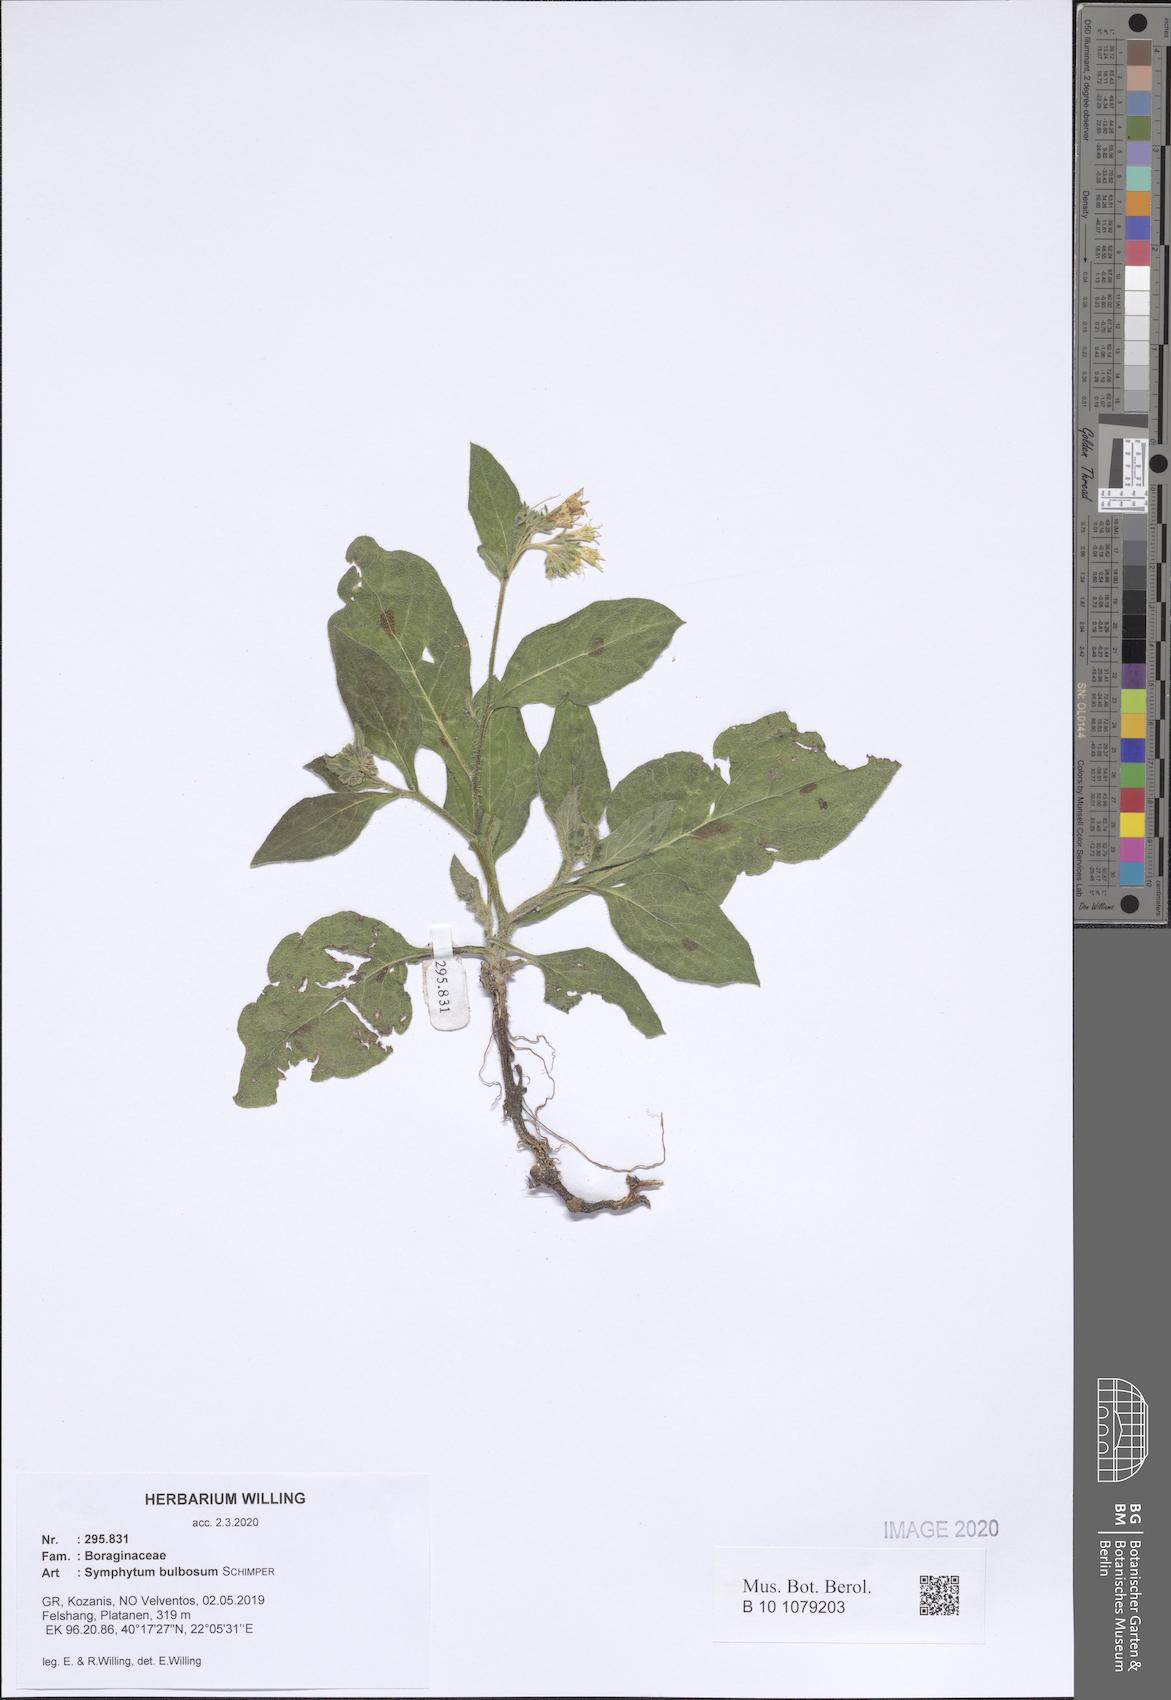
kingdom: Plantae
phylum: Tracheophyta
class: Magnoliopsida
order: Boraginales
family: Boraginaceae
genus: Symphytum
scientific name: Symphytum bulbosum
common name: Bulbous comfrey
